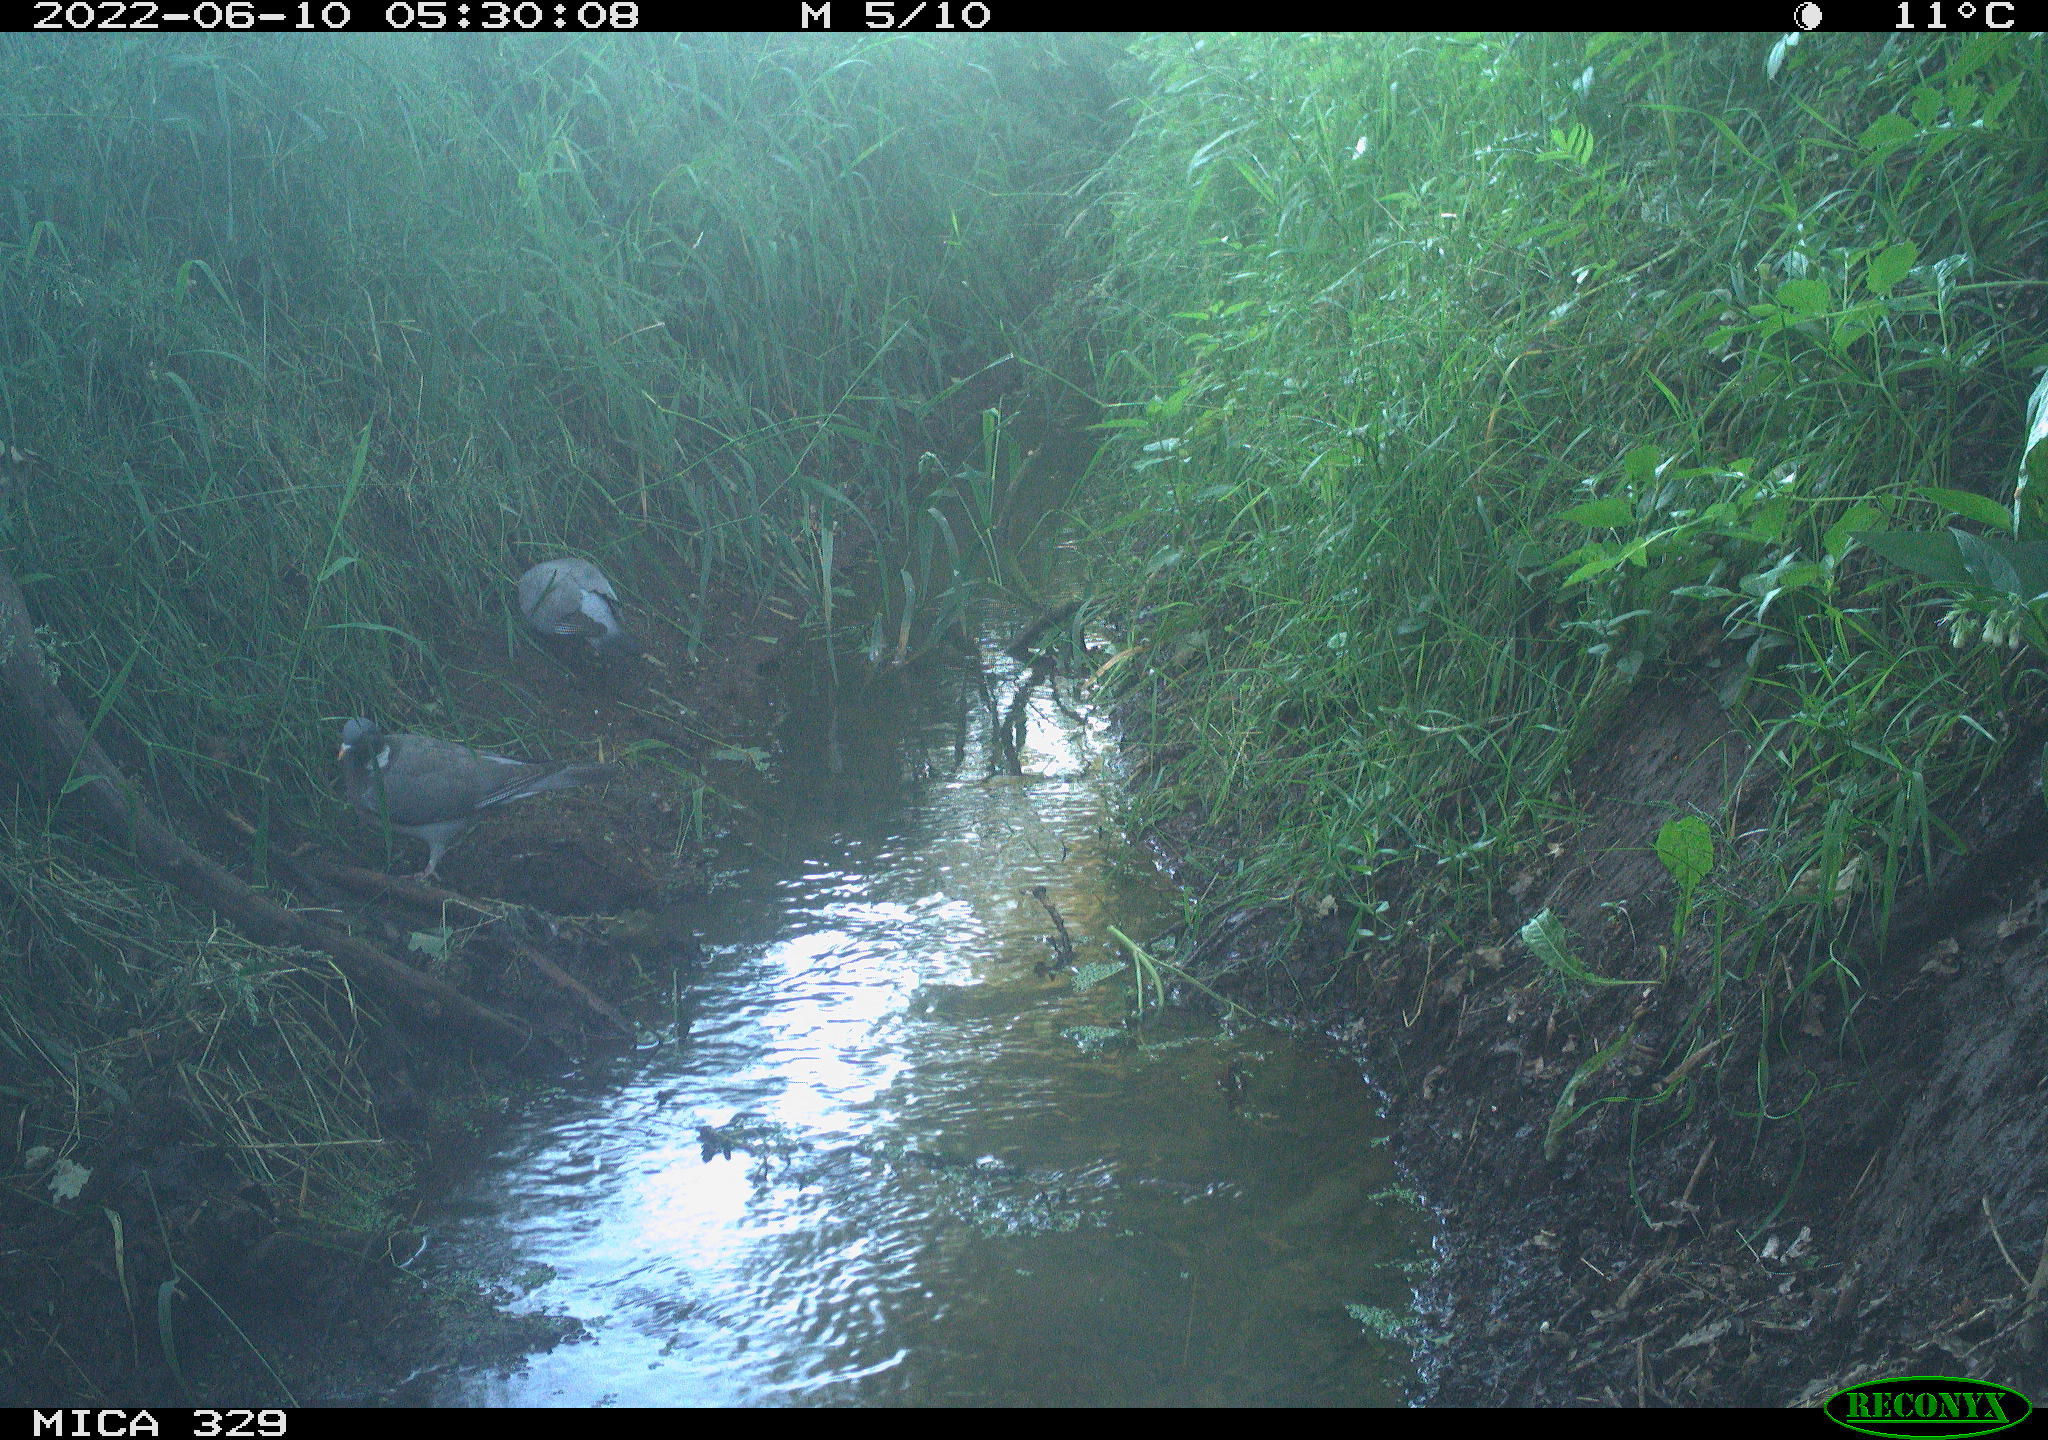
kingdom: Animalia
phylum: Chordata
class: Aves
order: Columbiformes
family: Columbidae
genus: Columba
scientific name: Columba palumbus
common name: Common wood pigeon
